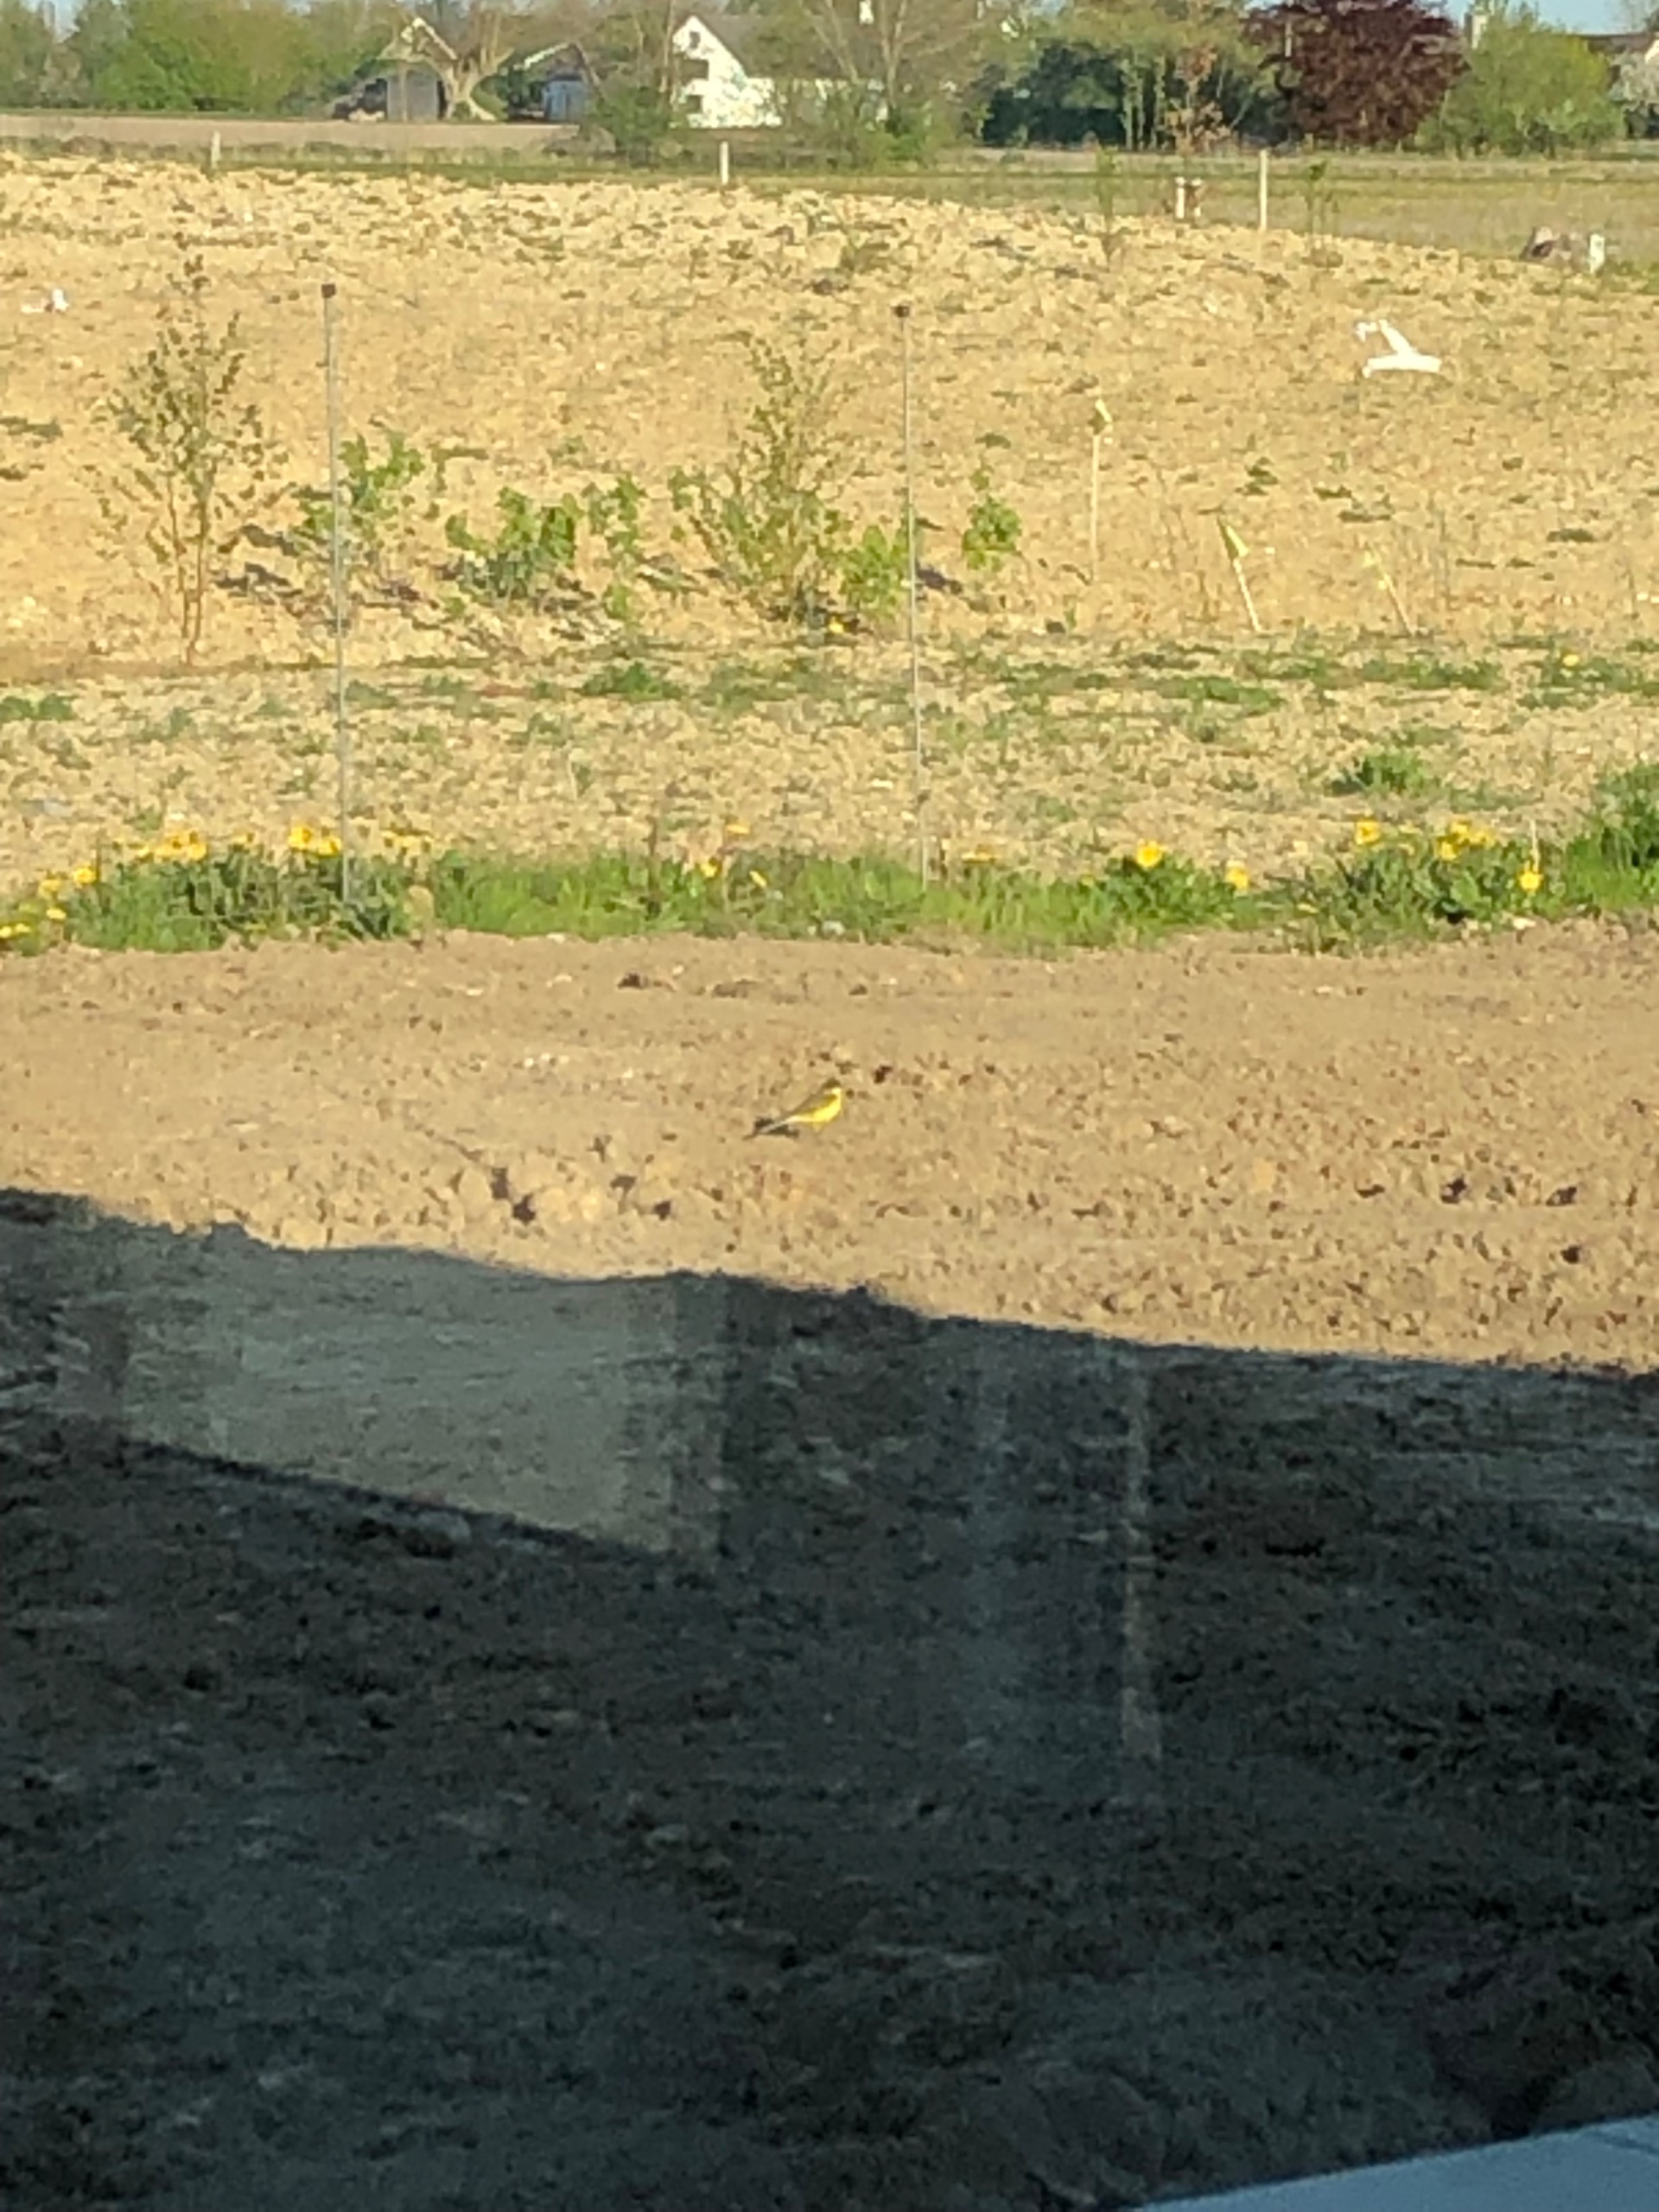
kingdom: Animalia
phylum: Chordata
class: Aves
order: Passeriformes
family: Motacillidae
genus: Motacilla
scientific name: Motacilla flava
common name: Gul vipstjert
